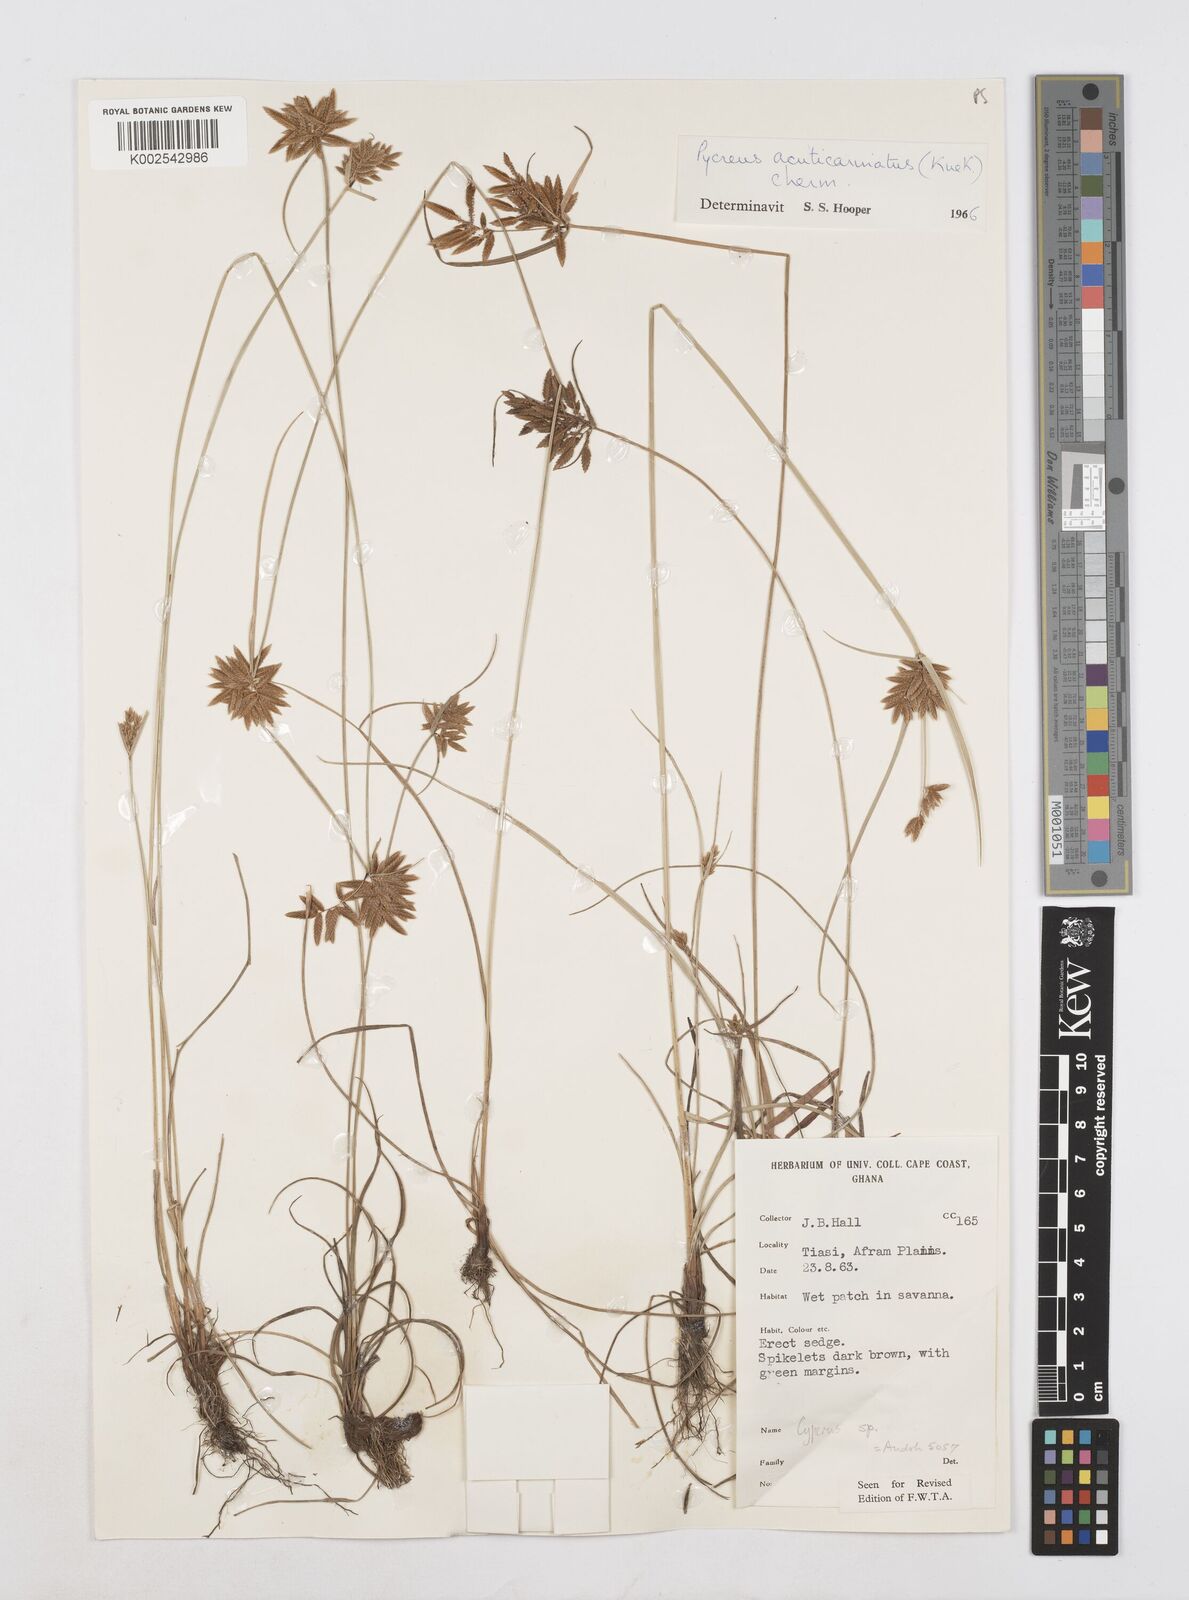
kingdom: Plantae
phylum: Tracheophyta
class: Liliopsida
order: Poales
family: Cyperaceae
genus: Cyperus
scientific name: Cyperus acuticarinatus
